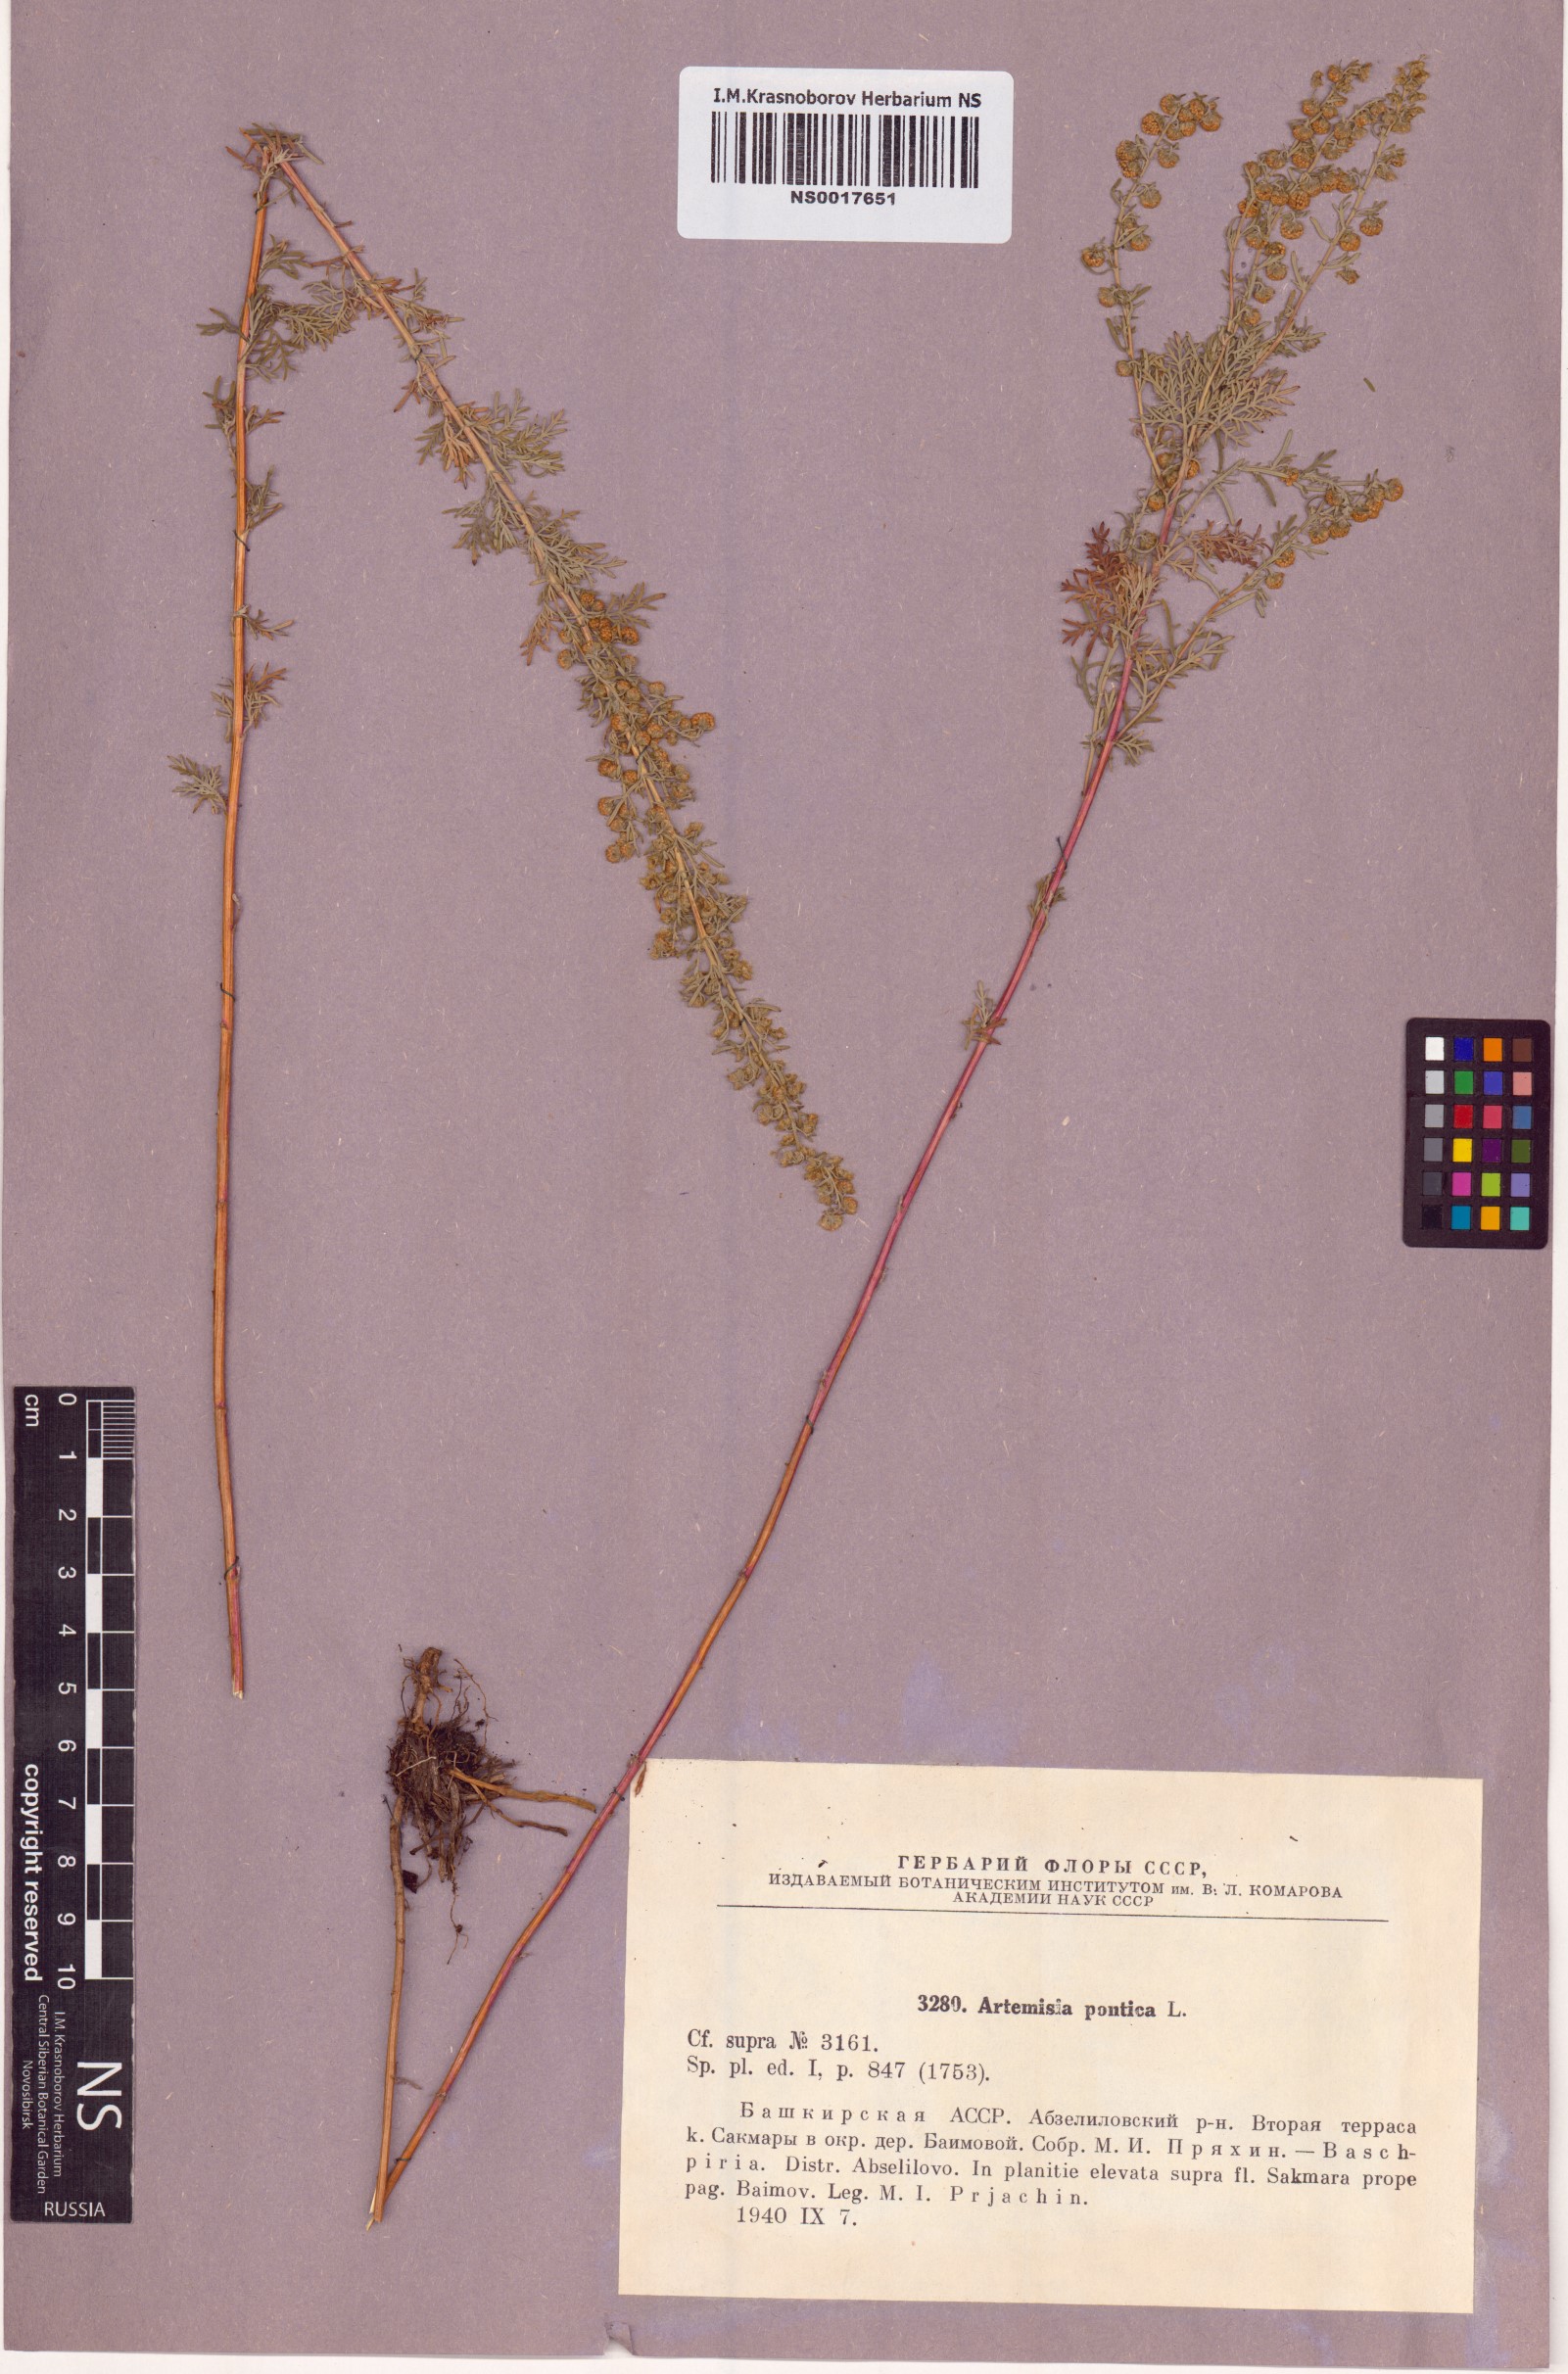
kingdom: Plantae
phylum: Tracheophyta
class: Magnoliopsida
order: Asterales
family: Asteraceae
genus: Artemisia
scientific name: Artemisia pontica
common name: Roman wormwood
